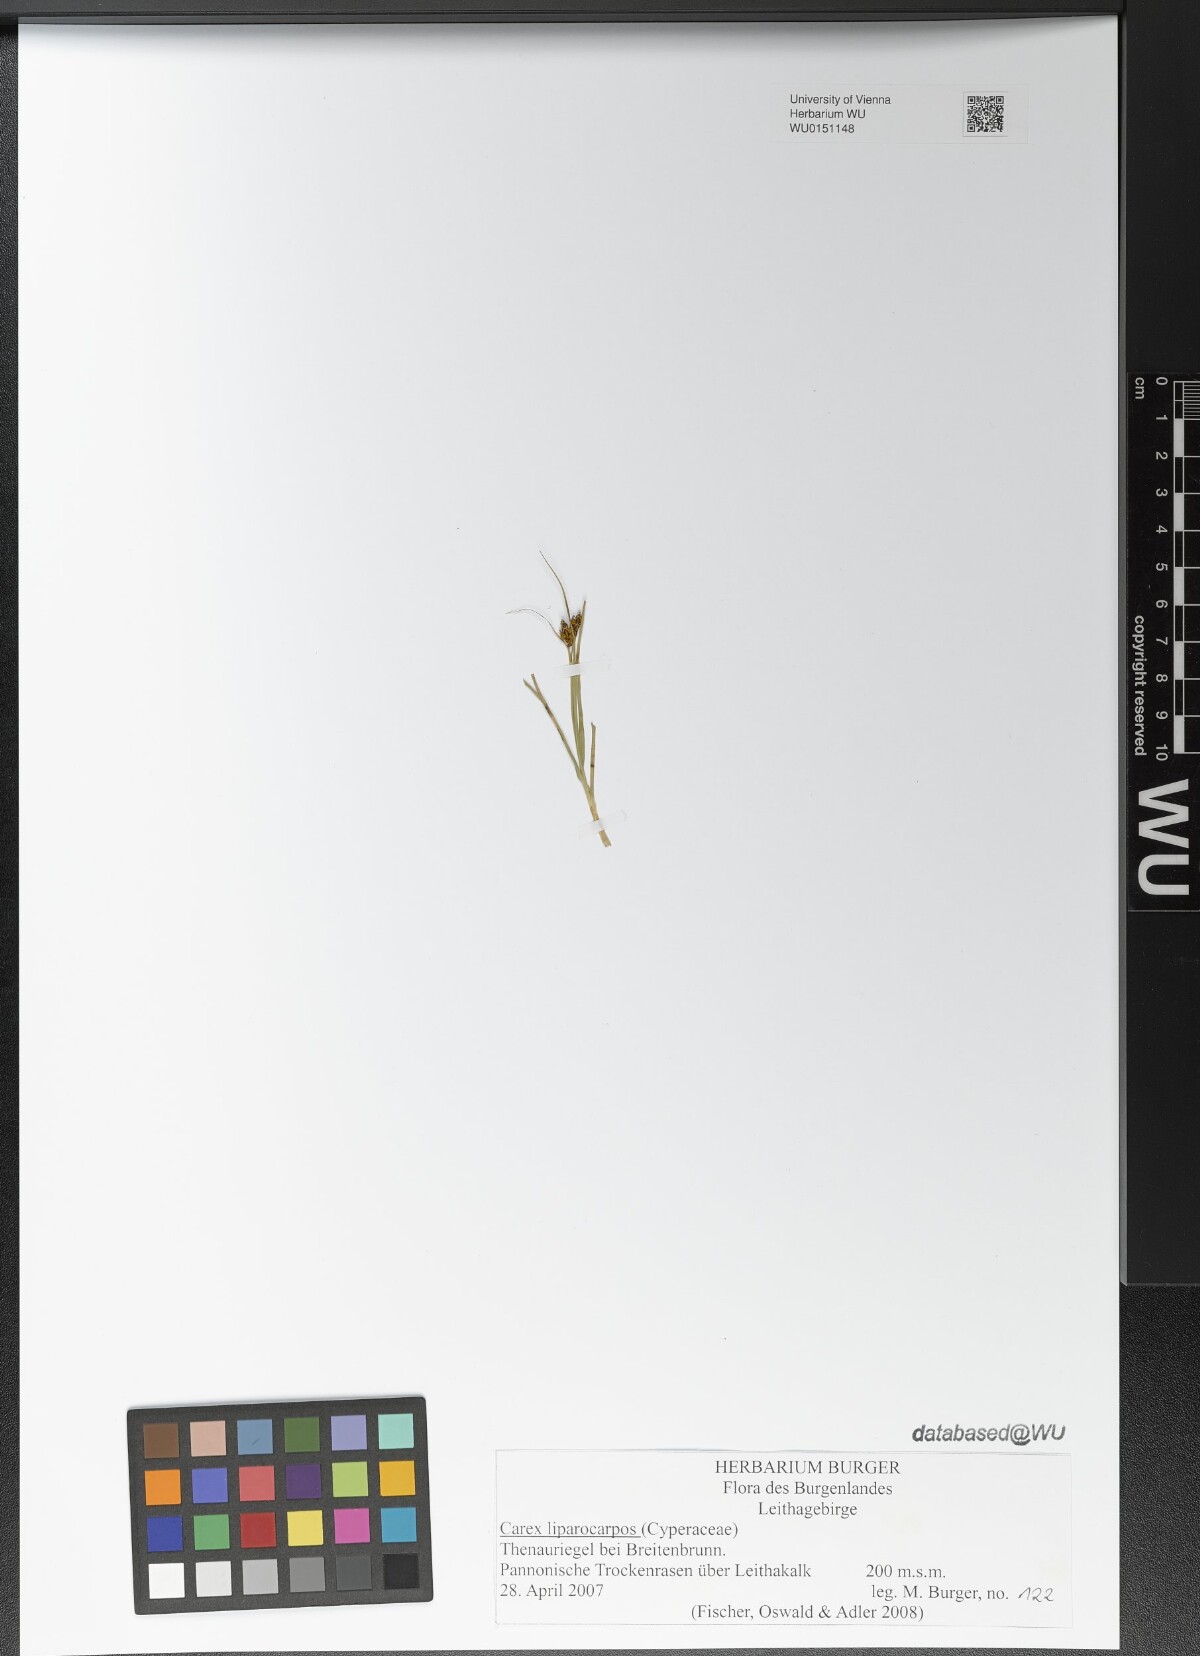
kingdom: Plantae
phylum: Tracheophyta
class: Liliopsida
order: Poales
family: Cyperaceae
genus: Carex
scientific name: Carex liparocarpos
